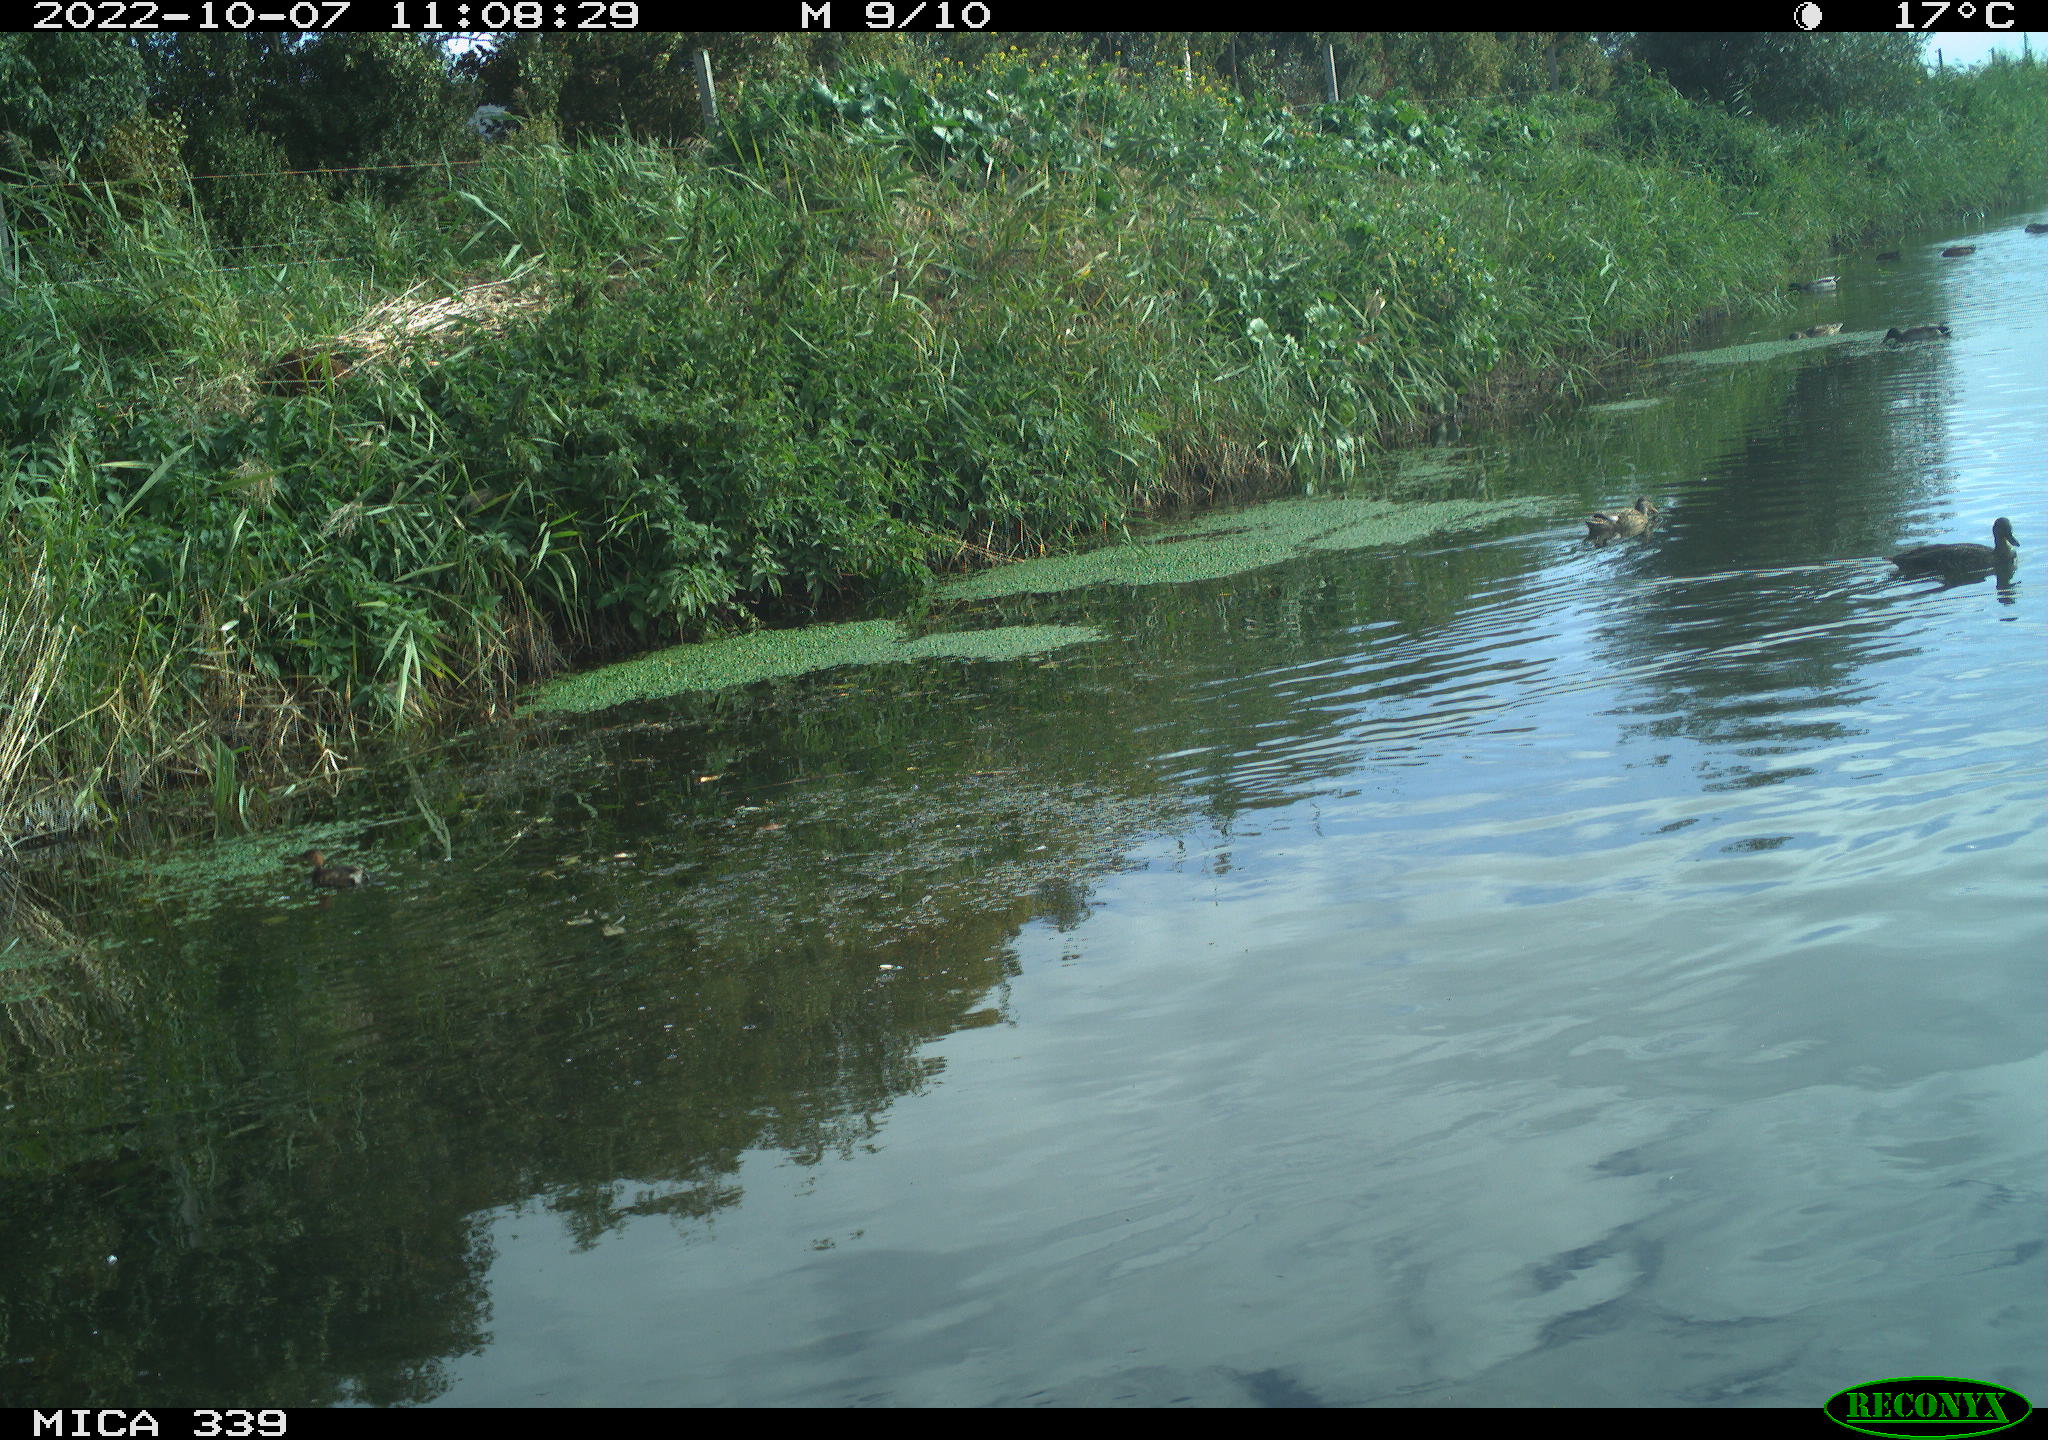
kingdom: Animalia
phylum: Chordata
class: Aves
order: Podicipediformes
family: Podicipedidae
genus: Tachybaptus
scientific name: Tachybaptus ruficollis
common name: Little grebe
